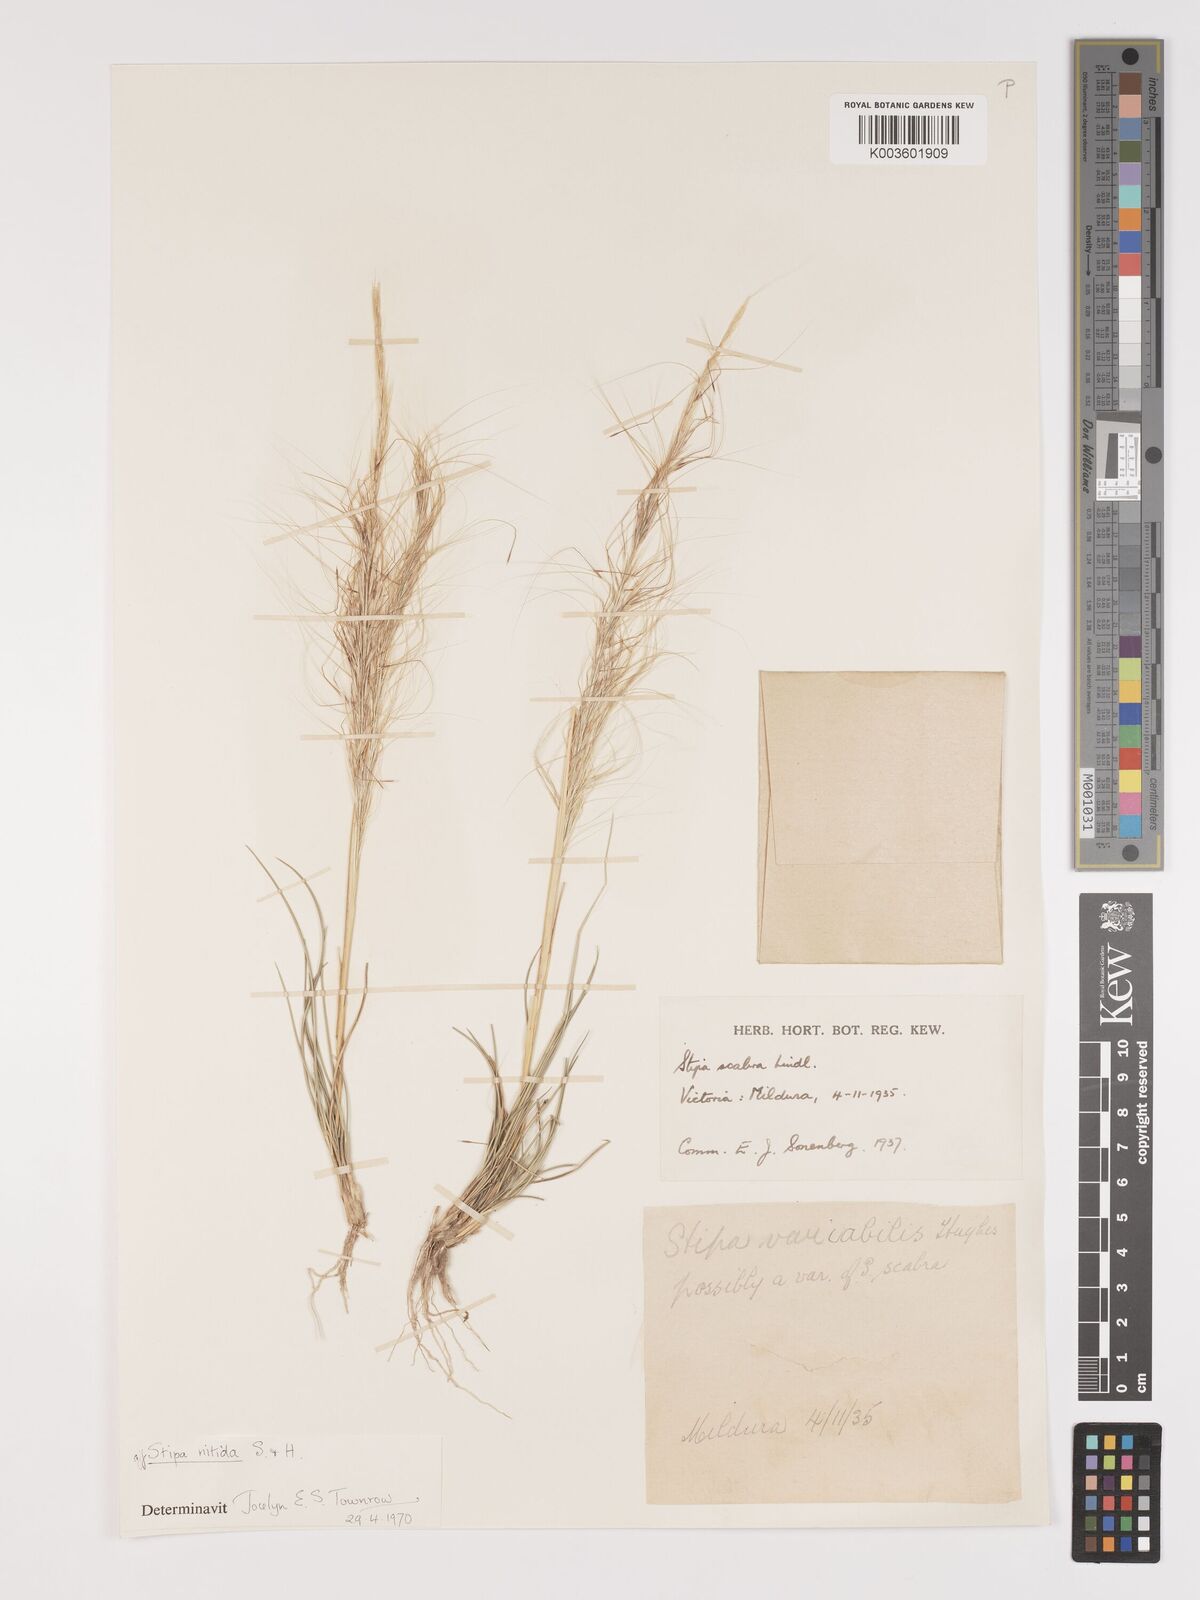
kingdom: Plantae
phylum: Tracheophyta
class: Liliopsida
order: Poales
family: Poaceae
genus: Austrostipa
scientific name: Austrostipa nitida
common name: Balcarra grass
